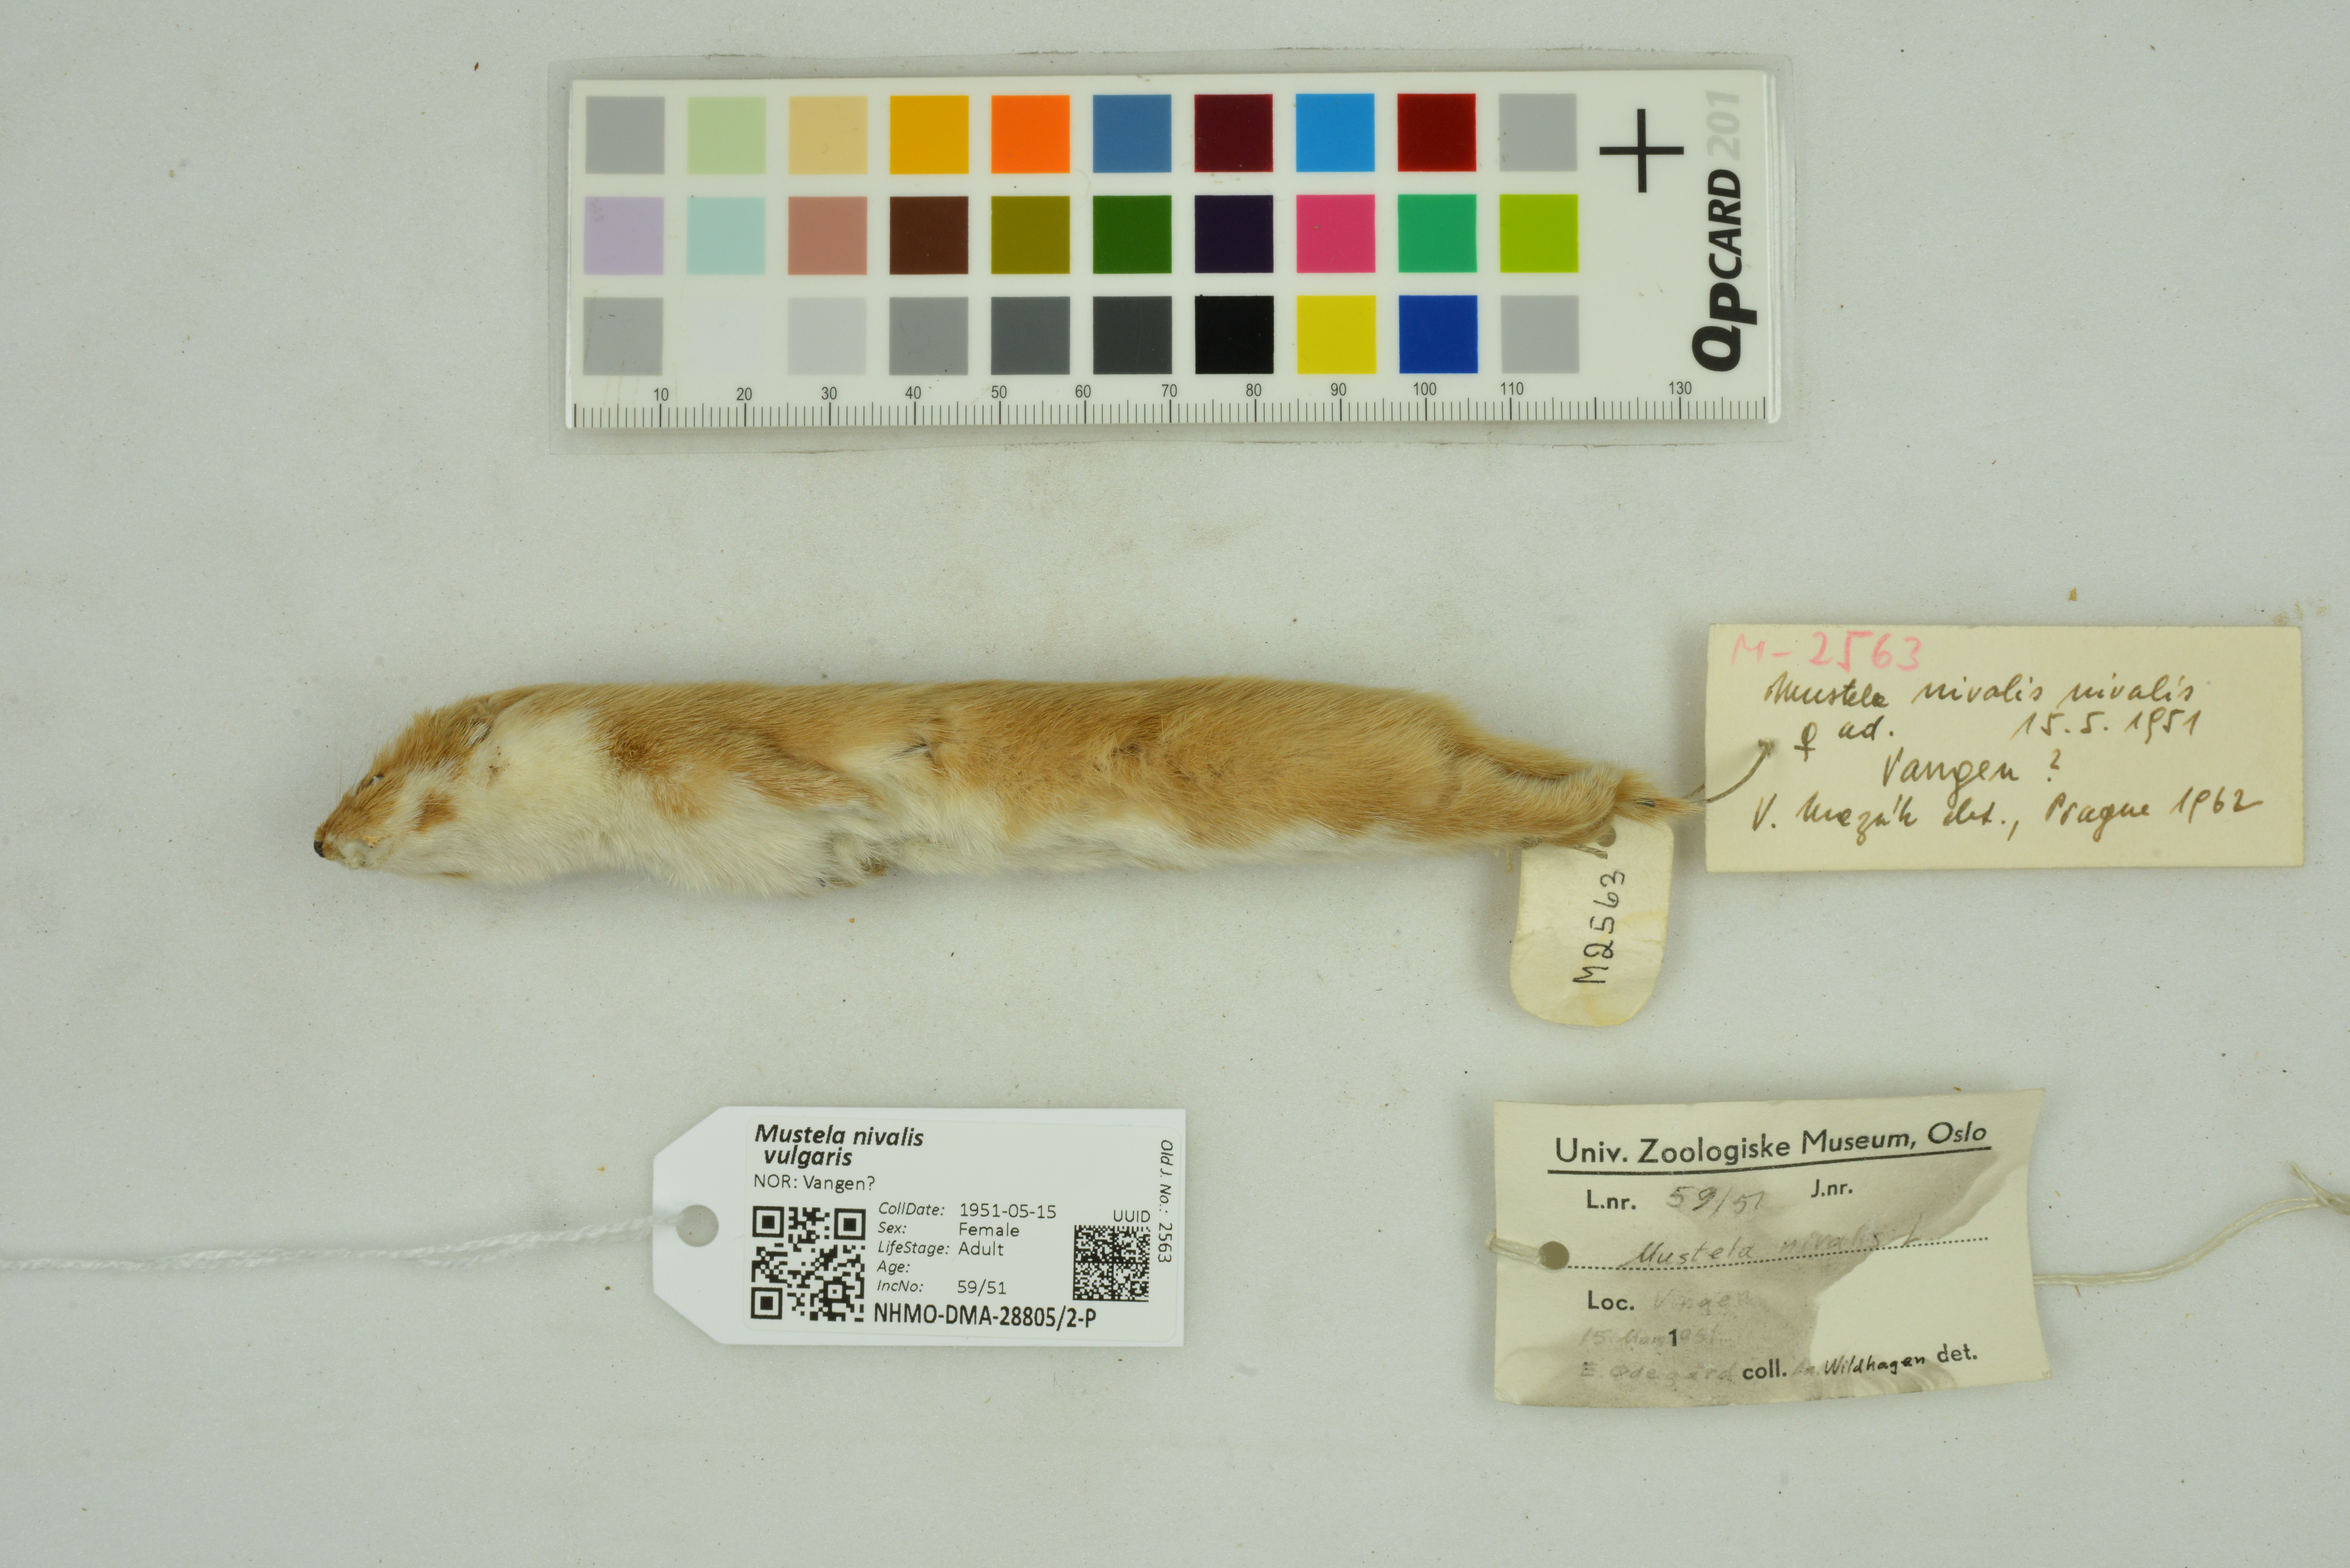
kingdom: Animalia
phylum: Chordata
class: Mammalia
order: Carnivora
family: Mustelidae
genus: Mustela
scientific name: Mustela nivalis
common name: Least weasel
